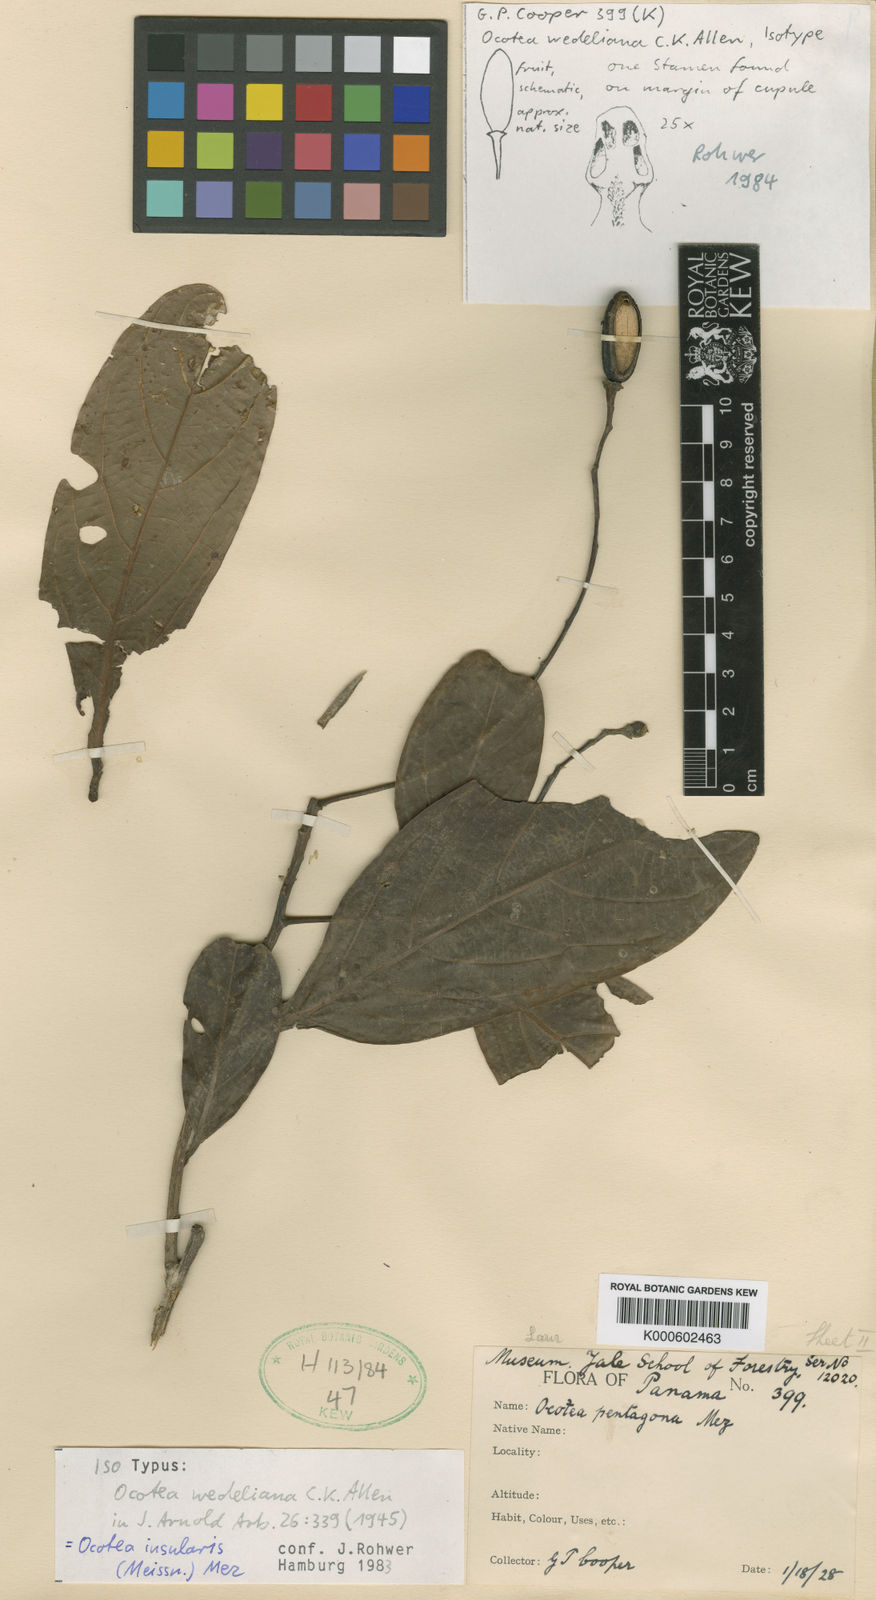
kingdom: Plantae
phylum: Tracheophyta
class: Magnoliopsida
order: Laurales
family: Lauraceae
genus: Ocotea
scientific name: Ocotea insularis
